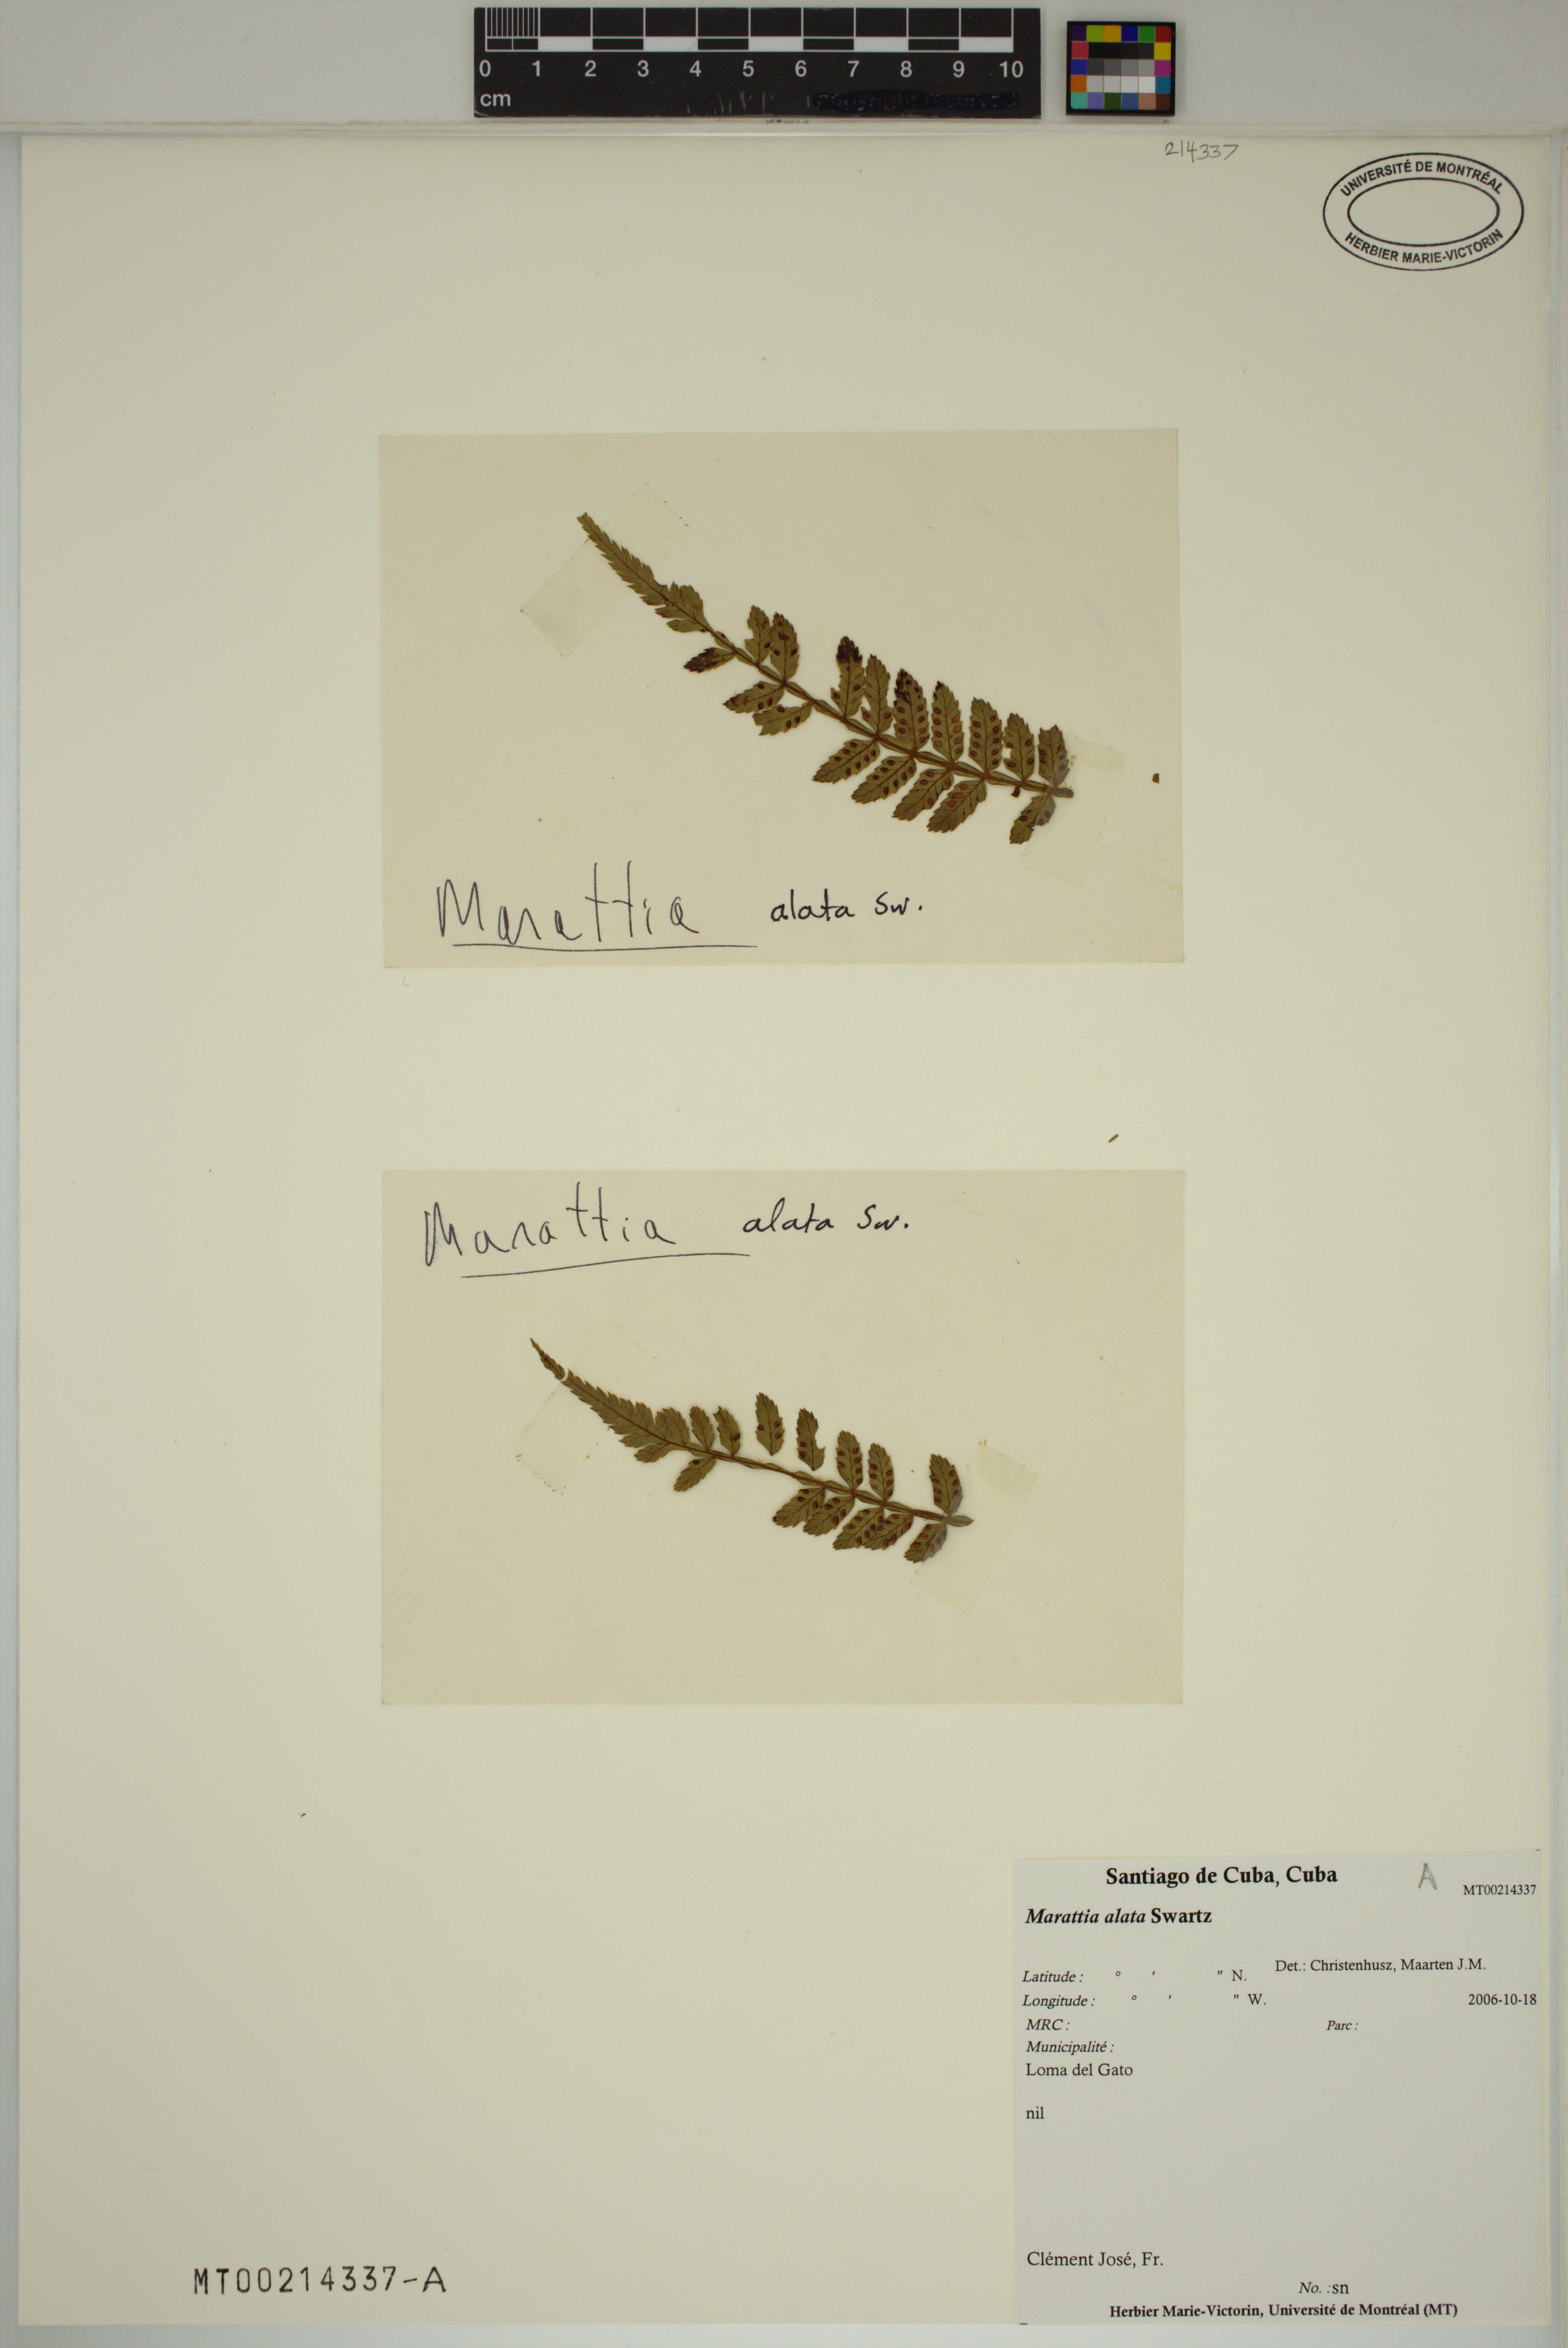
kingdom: Plantae
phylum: Tracheophyta
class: Polypodiopsida
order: Marattiales
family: Marattiaceae
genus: Marattia
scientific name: Marattia alata
